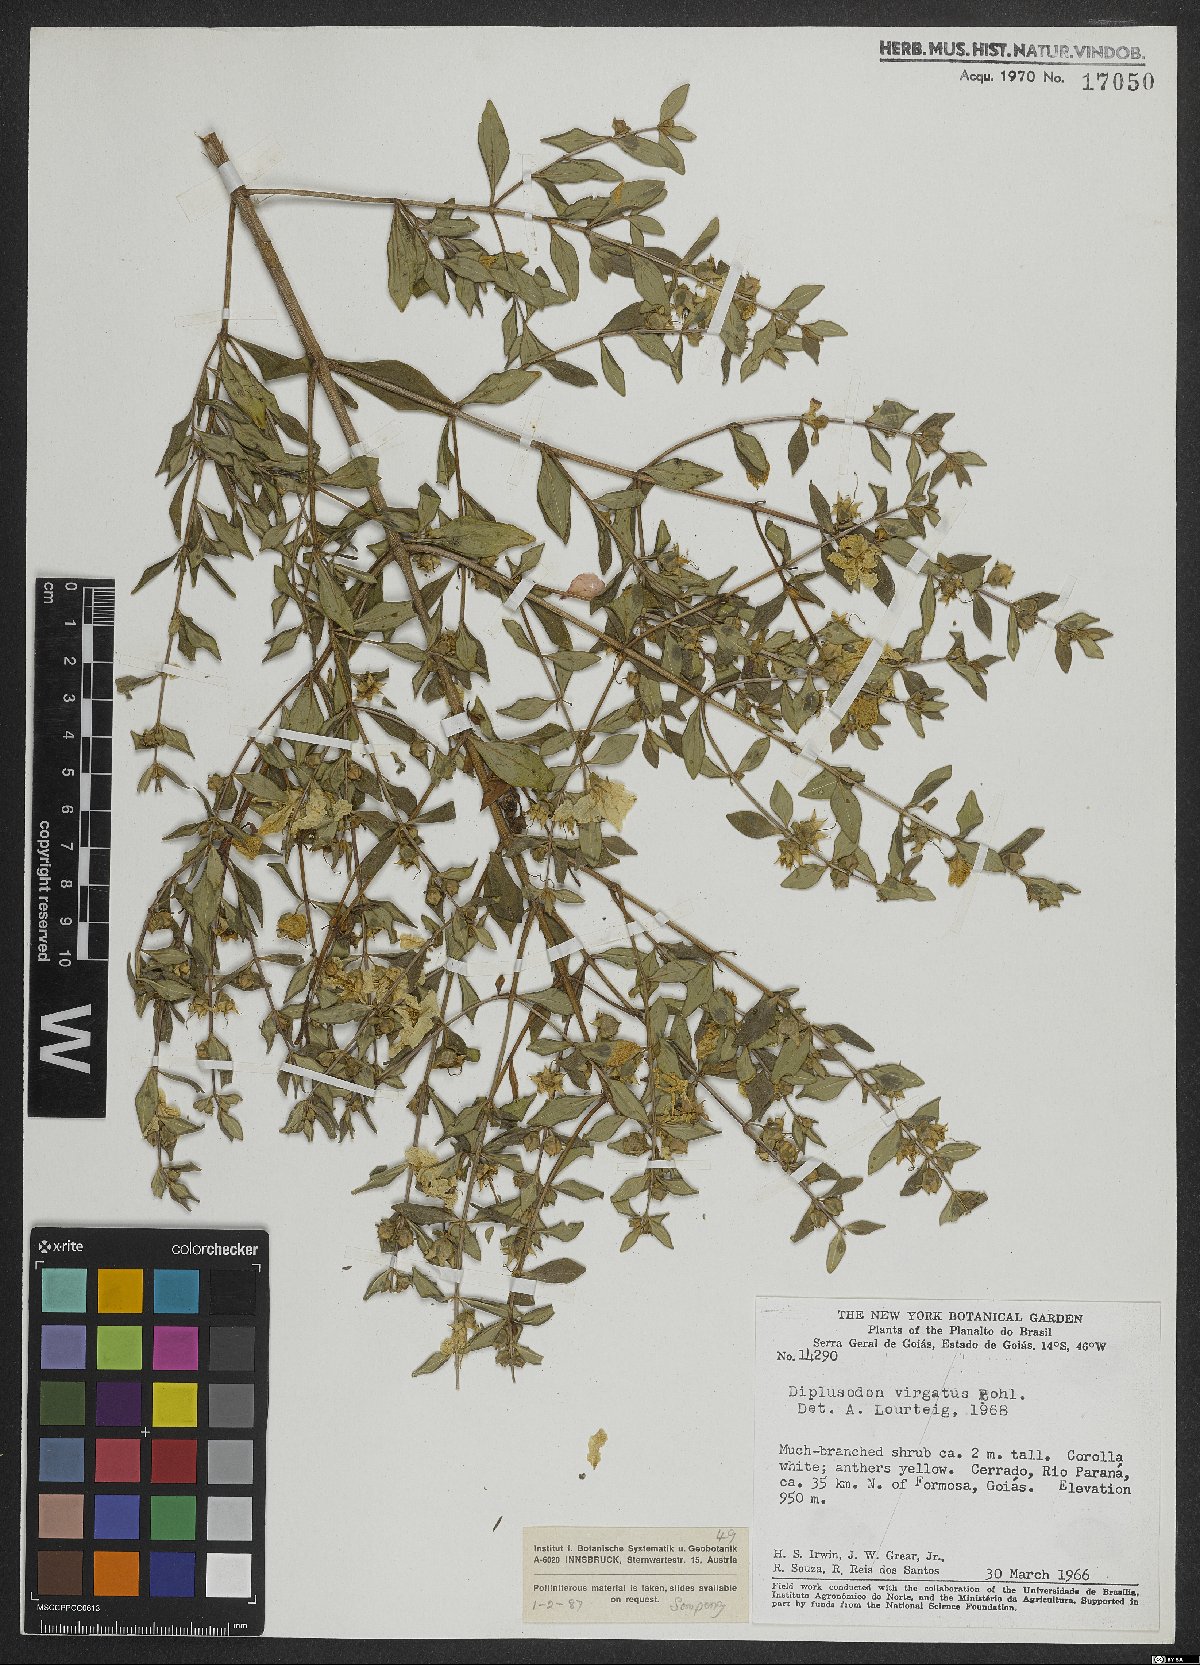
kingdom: Plantae
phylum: Tracheophyta
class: Magnoliopsida
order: Myrtales
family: Lythraceae
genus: Diplusodon
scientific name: Diplusodon virgatus
